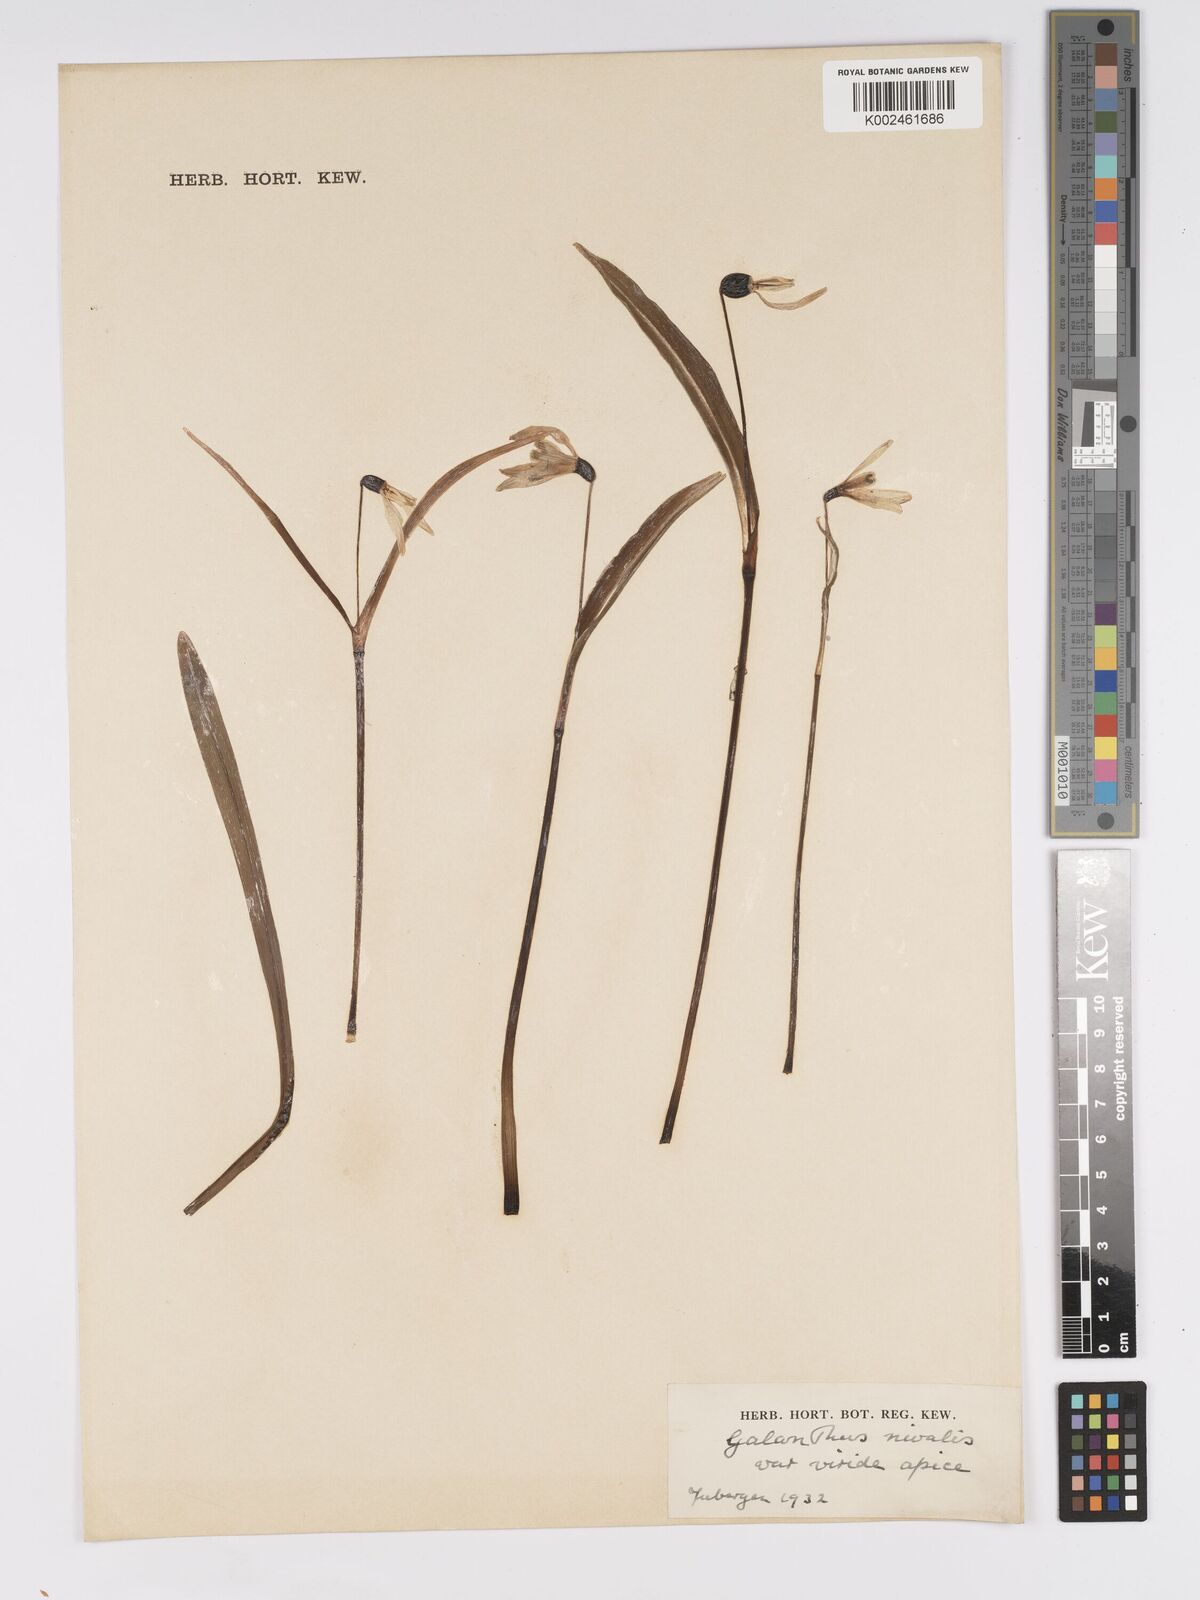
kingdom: Plantae
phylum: Tracheophyta
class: Liliopsida
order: Asparagales
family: Amaryllidaceae
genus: Galanthus
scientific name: Galanthus
